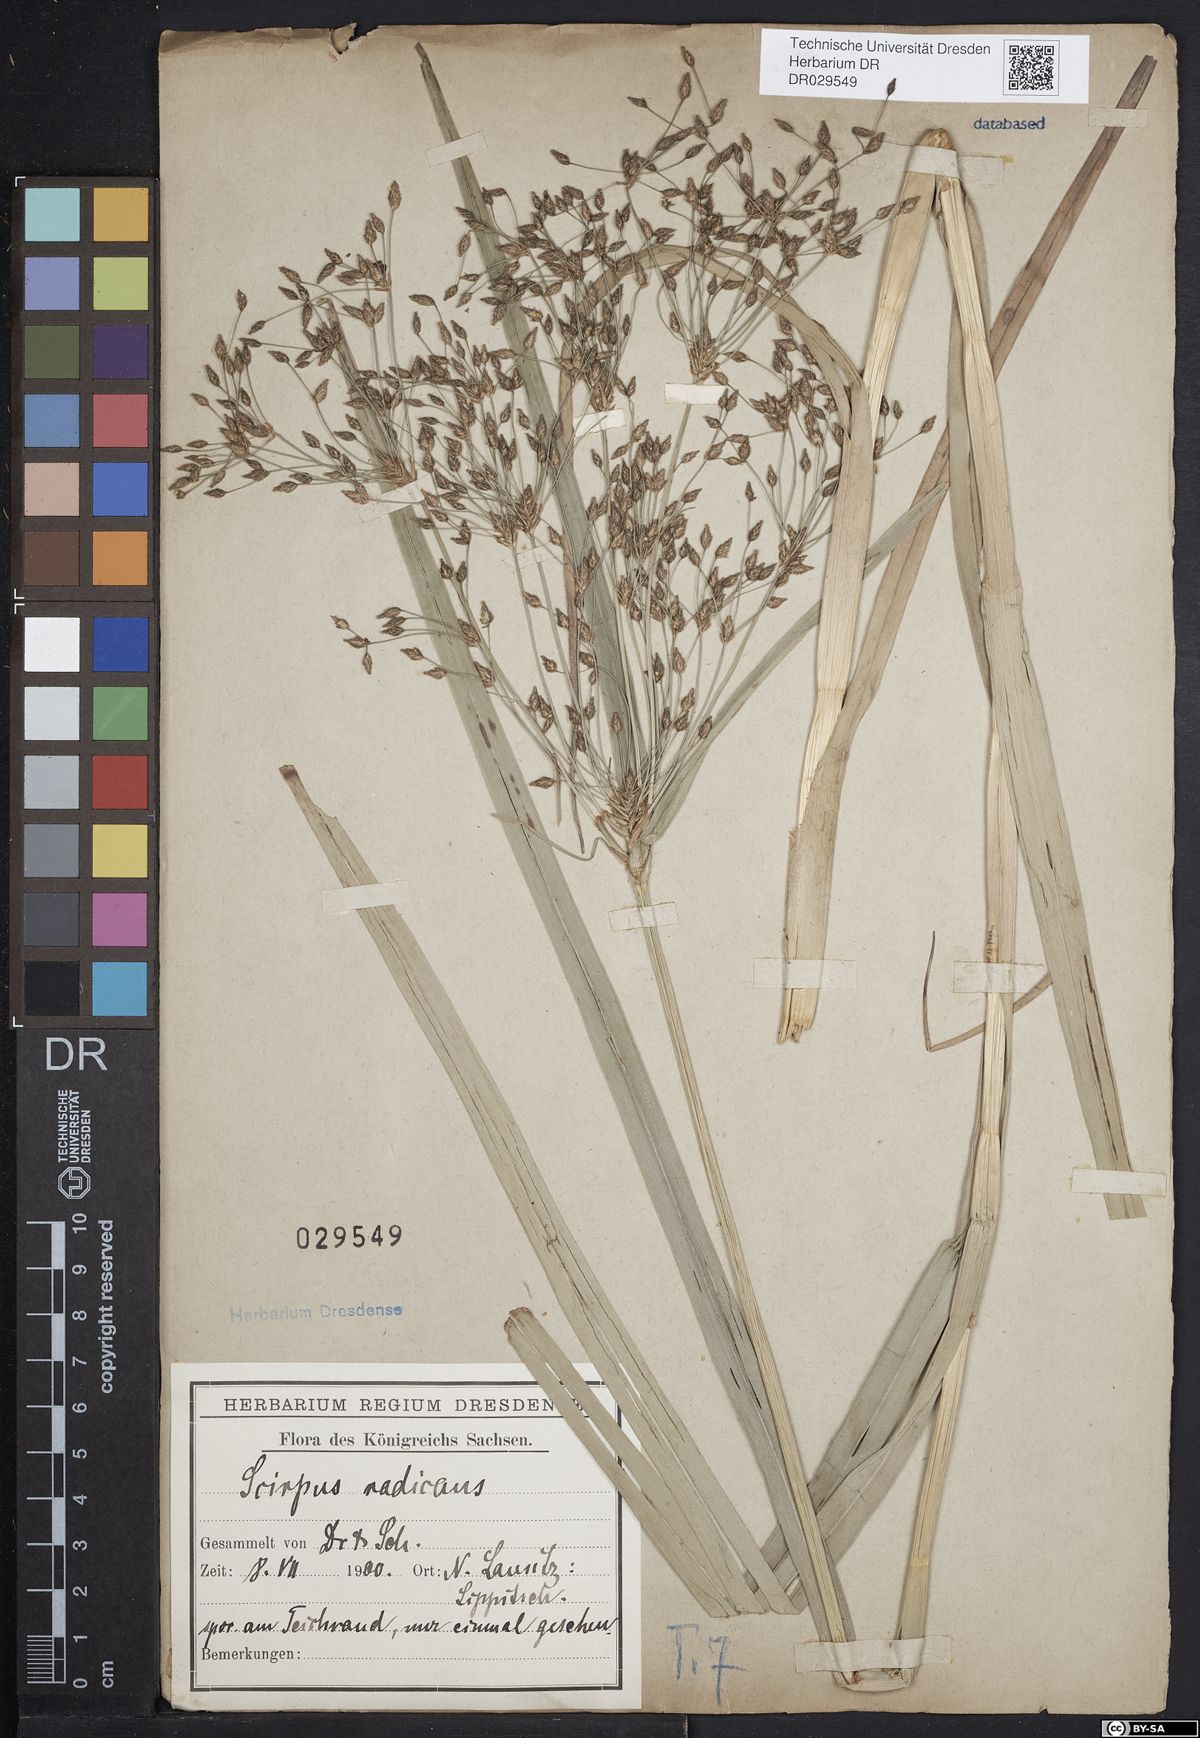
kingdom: Plantae
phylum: Tracheophyta
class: Liliopsida
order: Poales
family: Cyperaceae
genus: Scirpus
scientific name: Scirpus radicans
